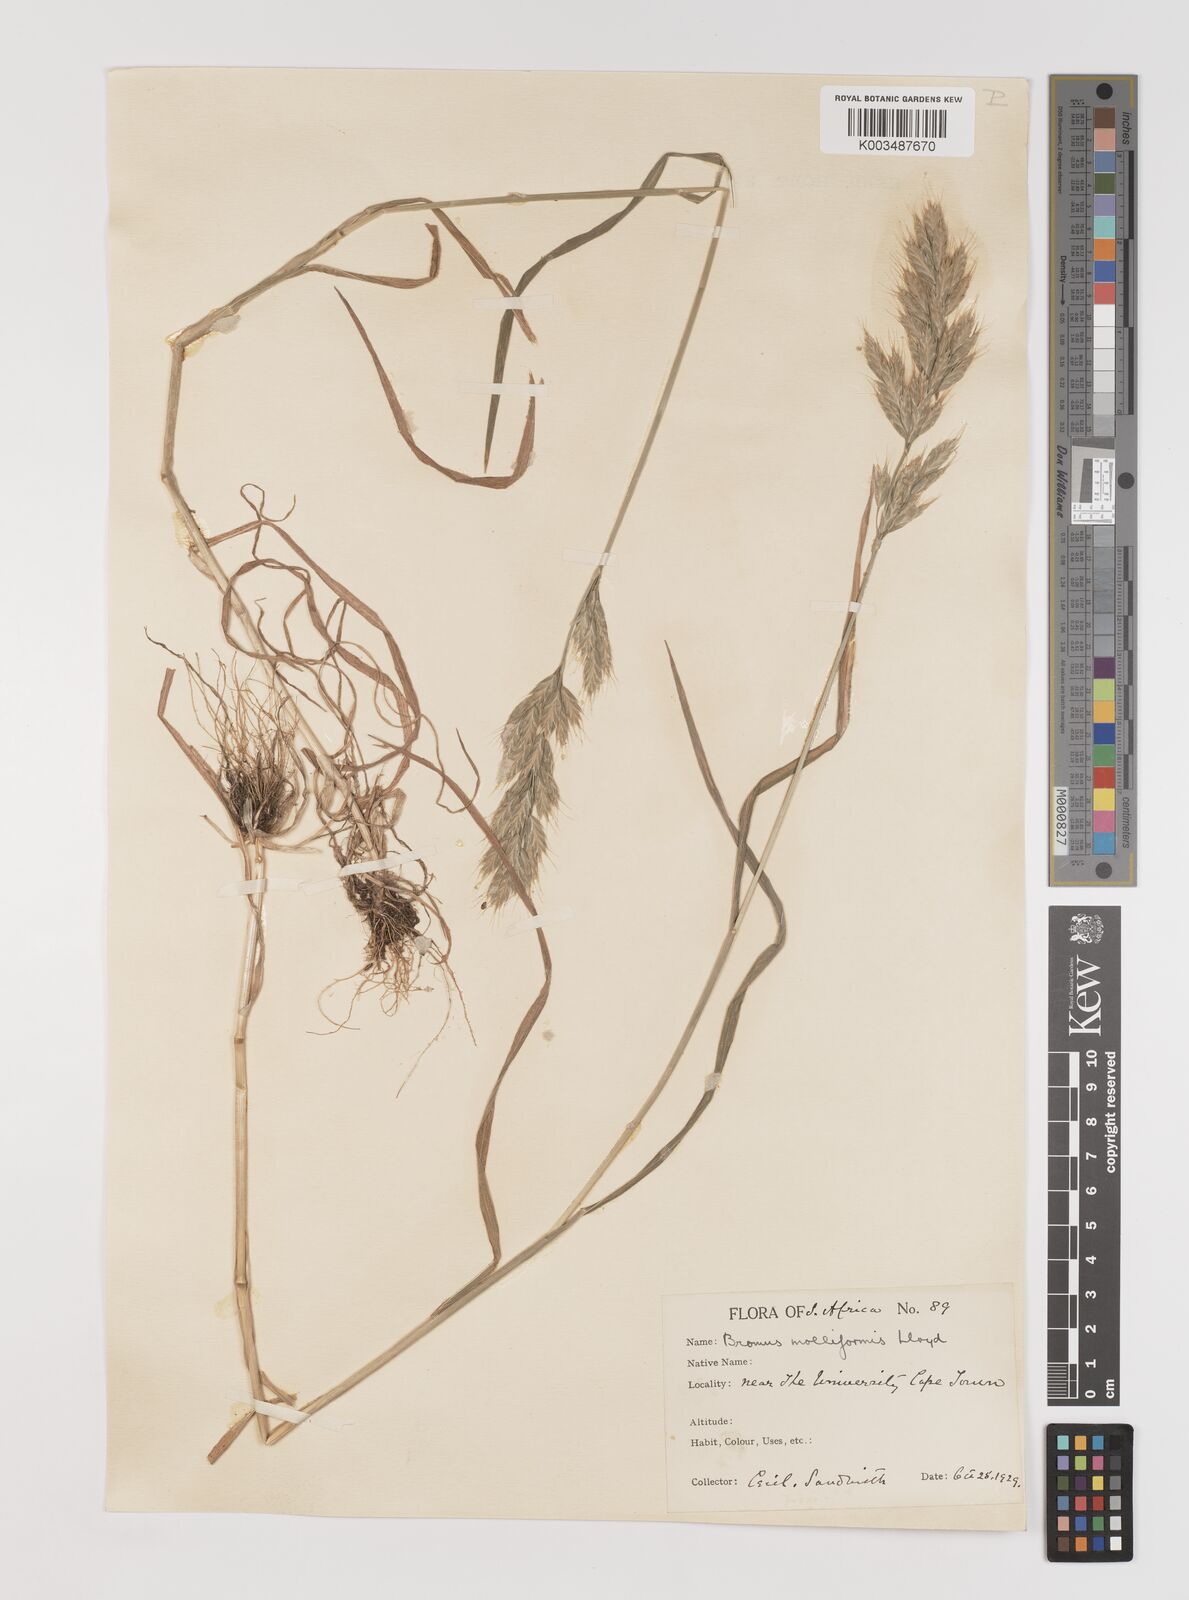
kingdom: Plantae
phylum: Tracheophyta
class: Liliopsida
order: Poales
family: Poaceae
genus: Bromus
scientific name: Bromus hordeaceus
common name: Soft brome
